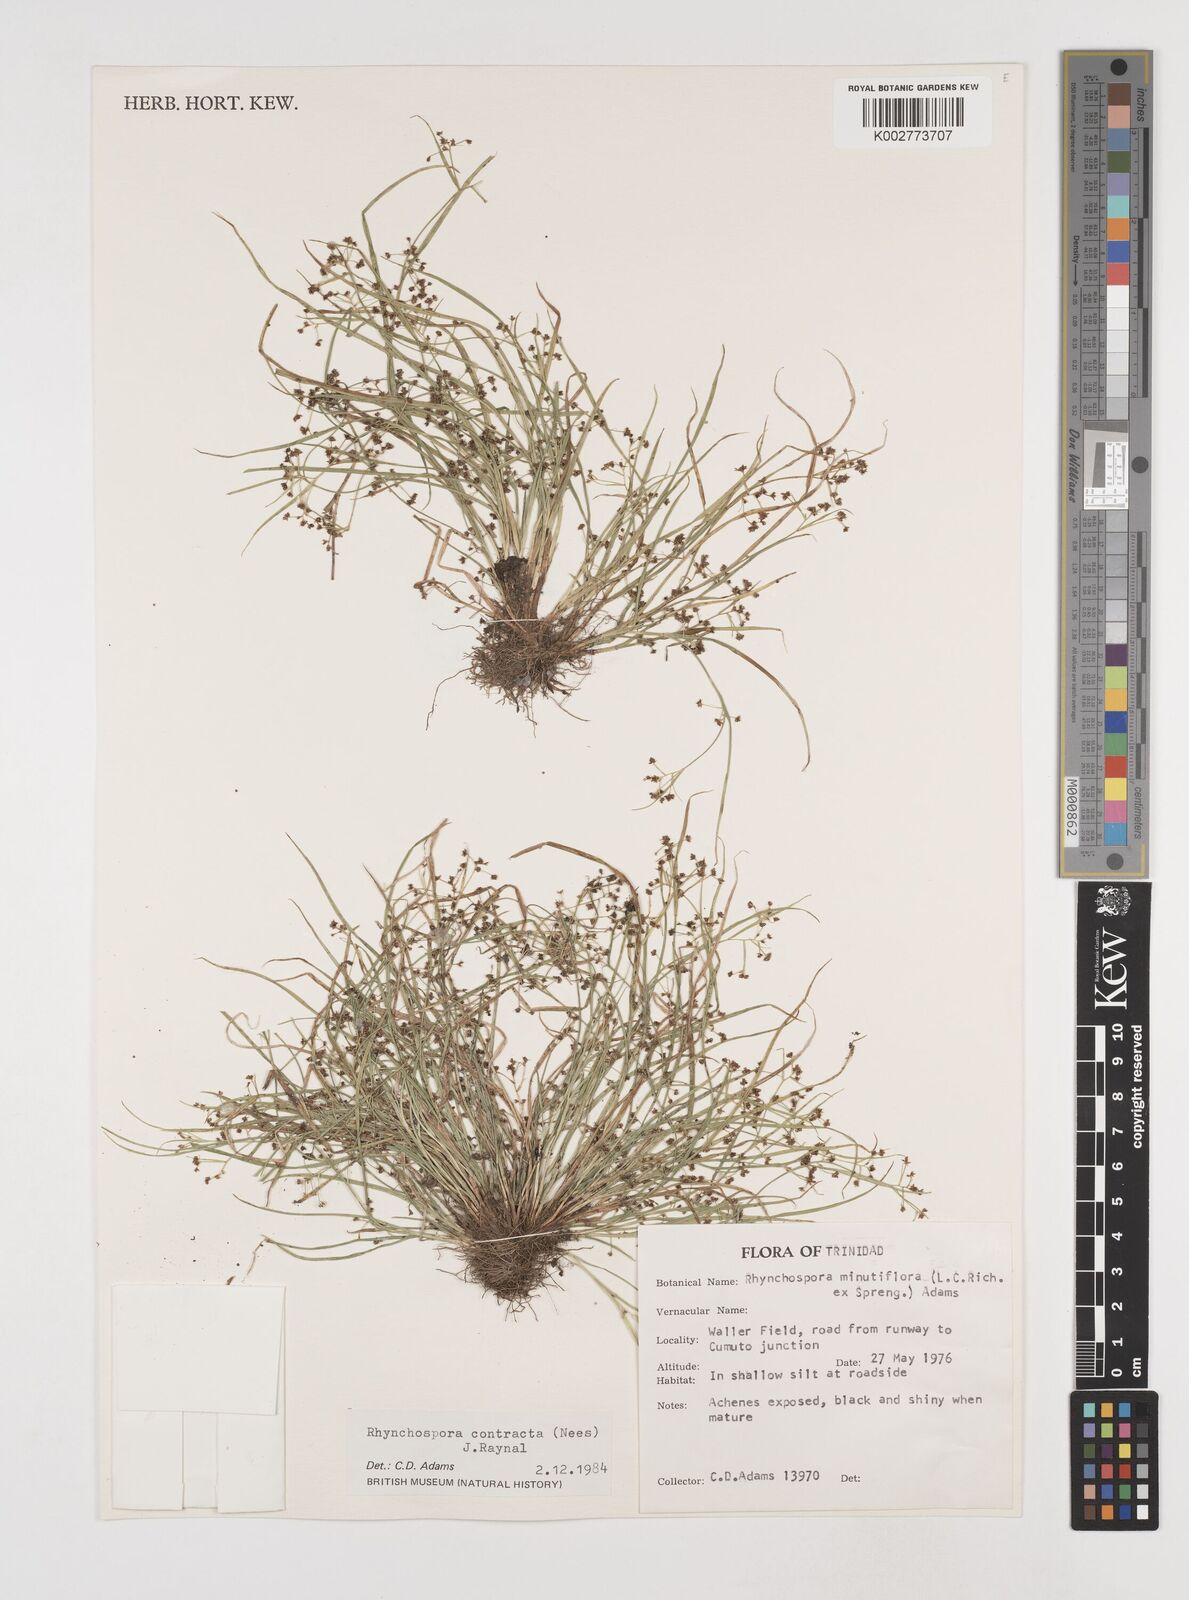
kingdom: Plantae
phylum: Tracheophyta
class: Liliopsida
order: Poales
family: Cyperaceae
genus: Rhynchospora
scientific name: Rhynchospora contracta
